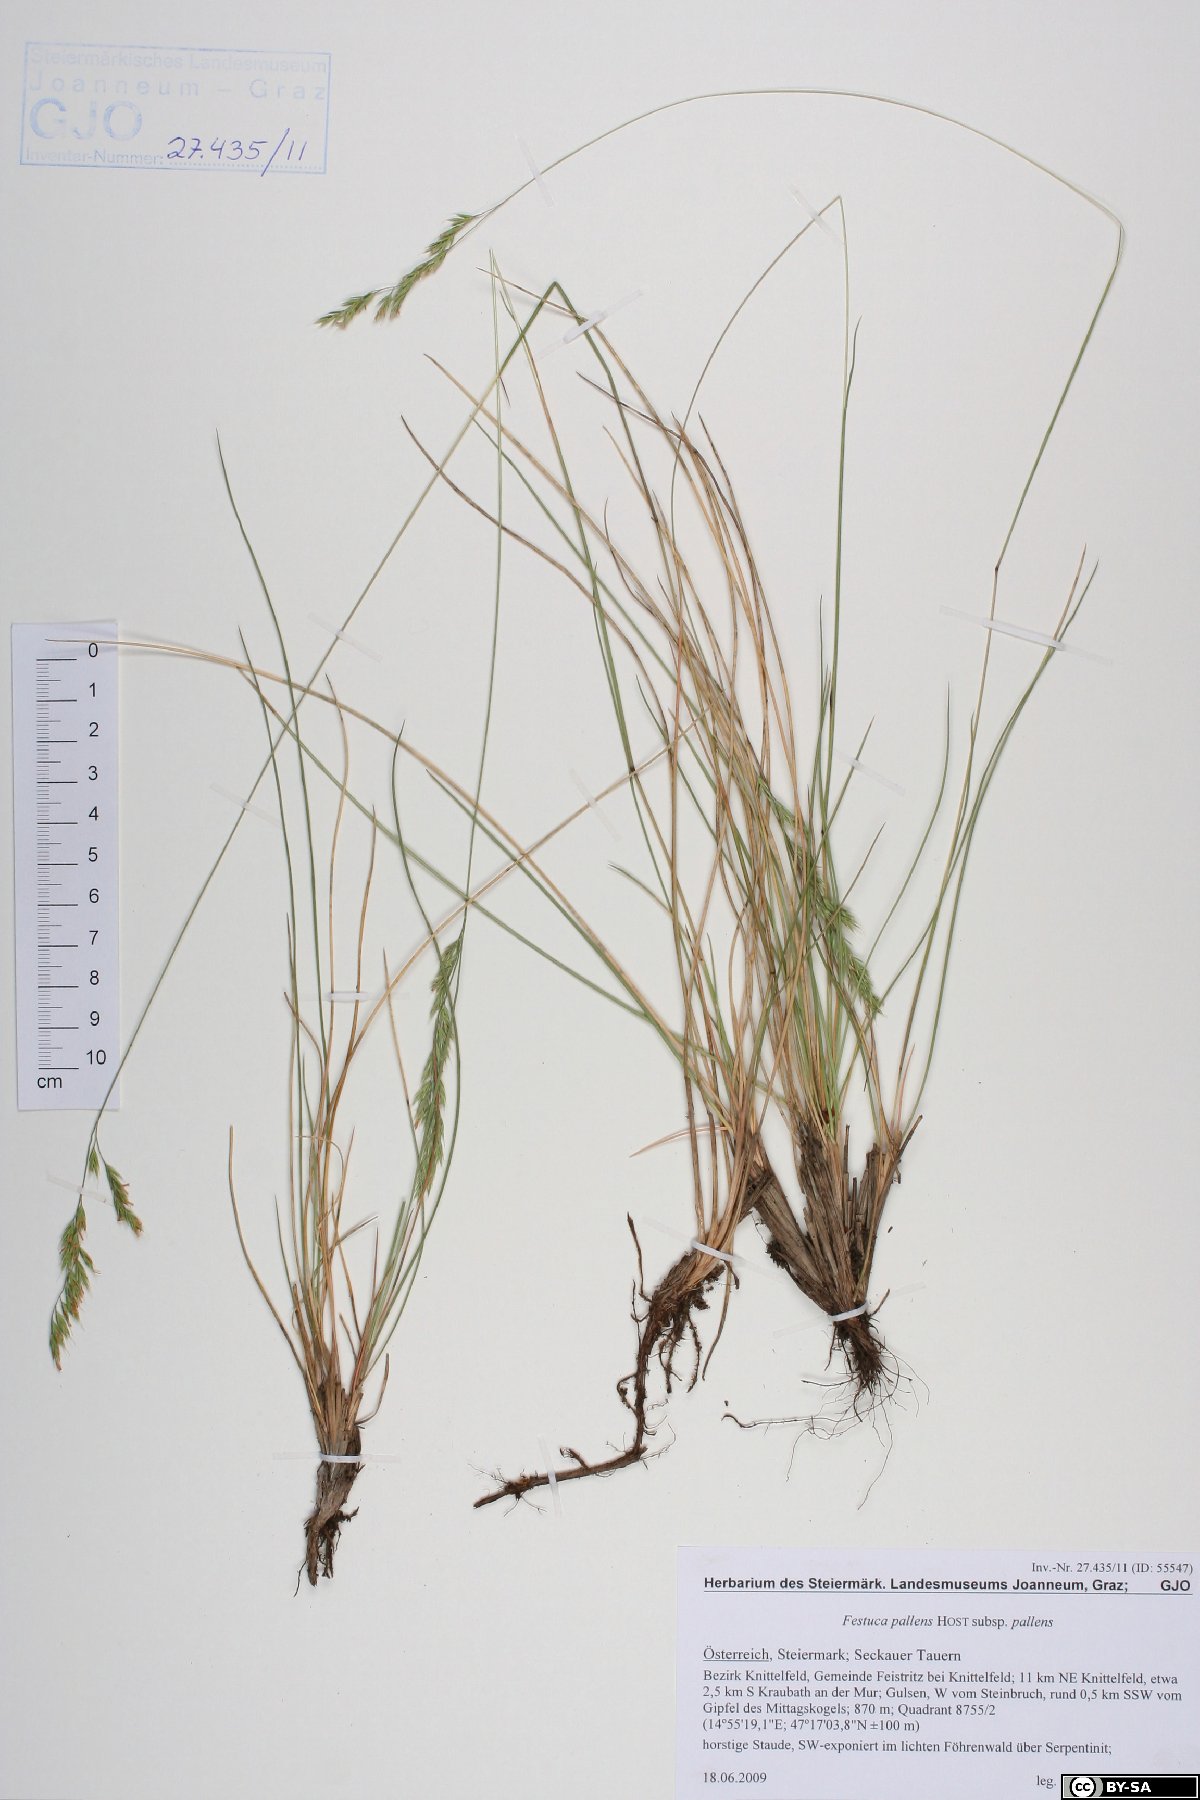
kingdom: Plantae
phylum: Tracheophyta
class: Liliopsida
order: Poales
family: Poaceae
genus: Festuca
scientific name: Festuca pallens
